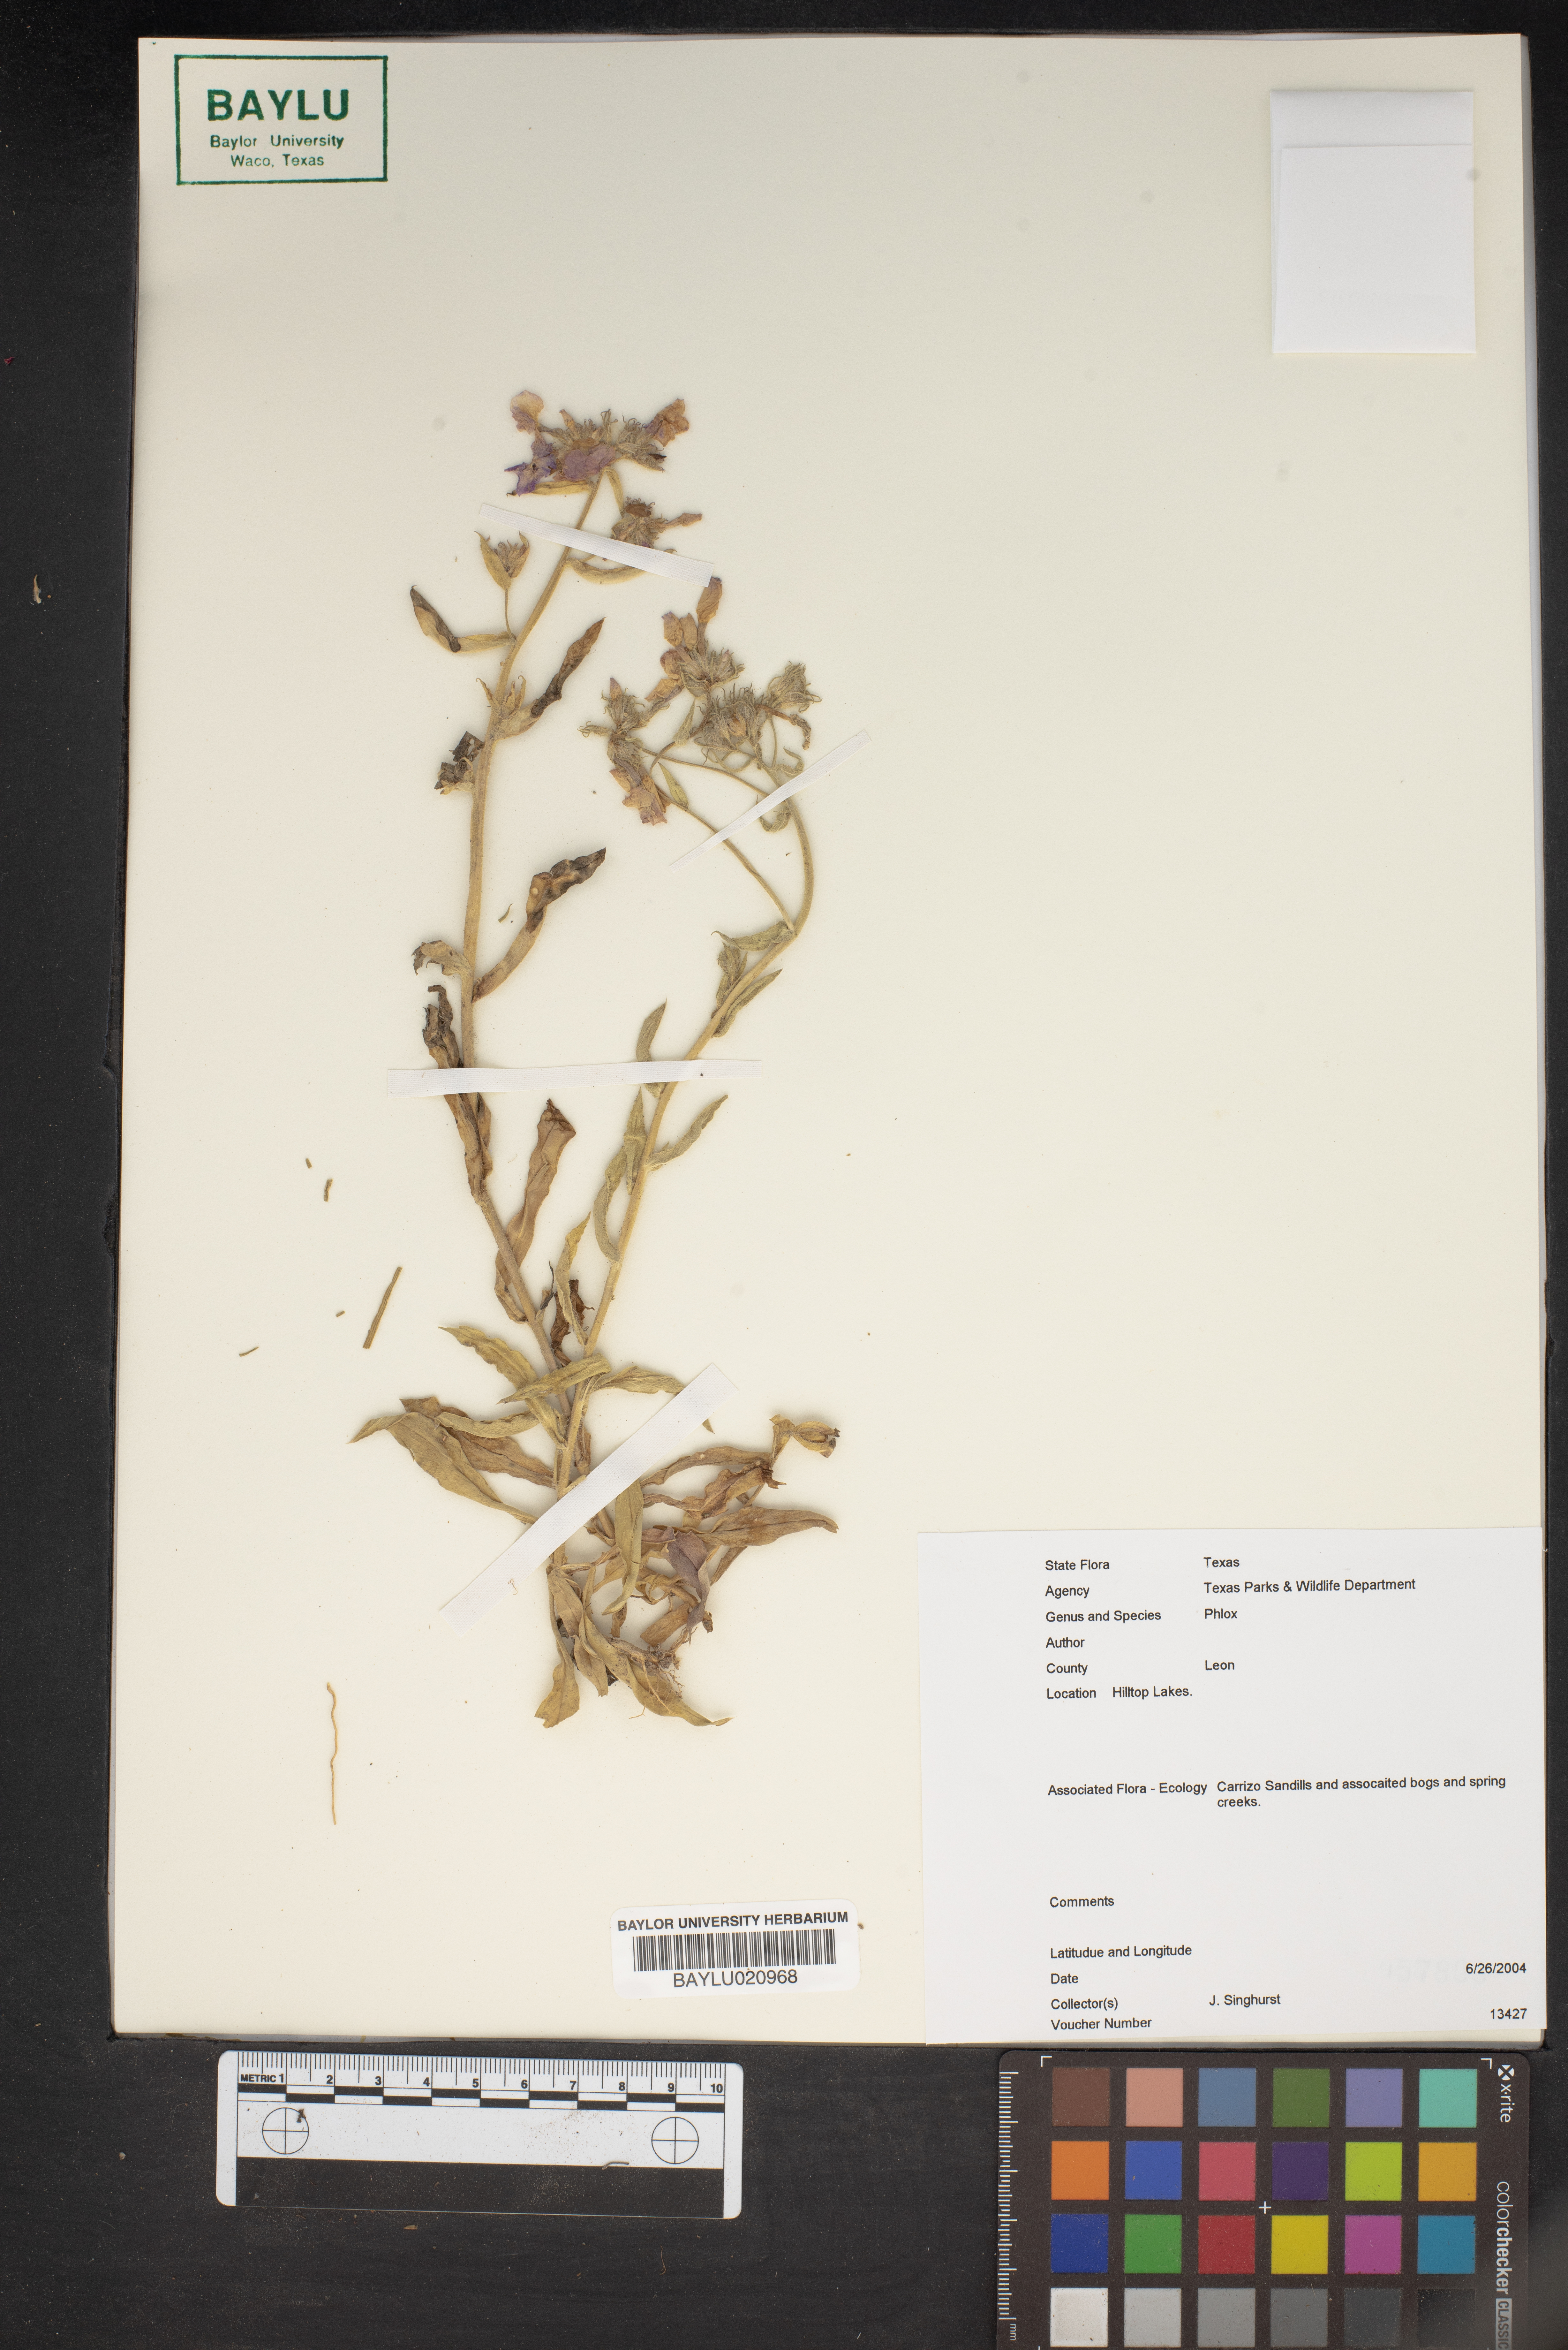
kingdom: Plantae
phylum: Tracheophyta
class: Magnoliopsida
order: Ericales
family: Polemoniaceae
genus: Phlox
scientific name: Phlox
